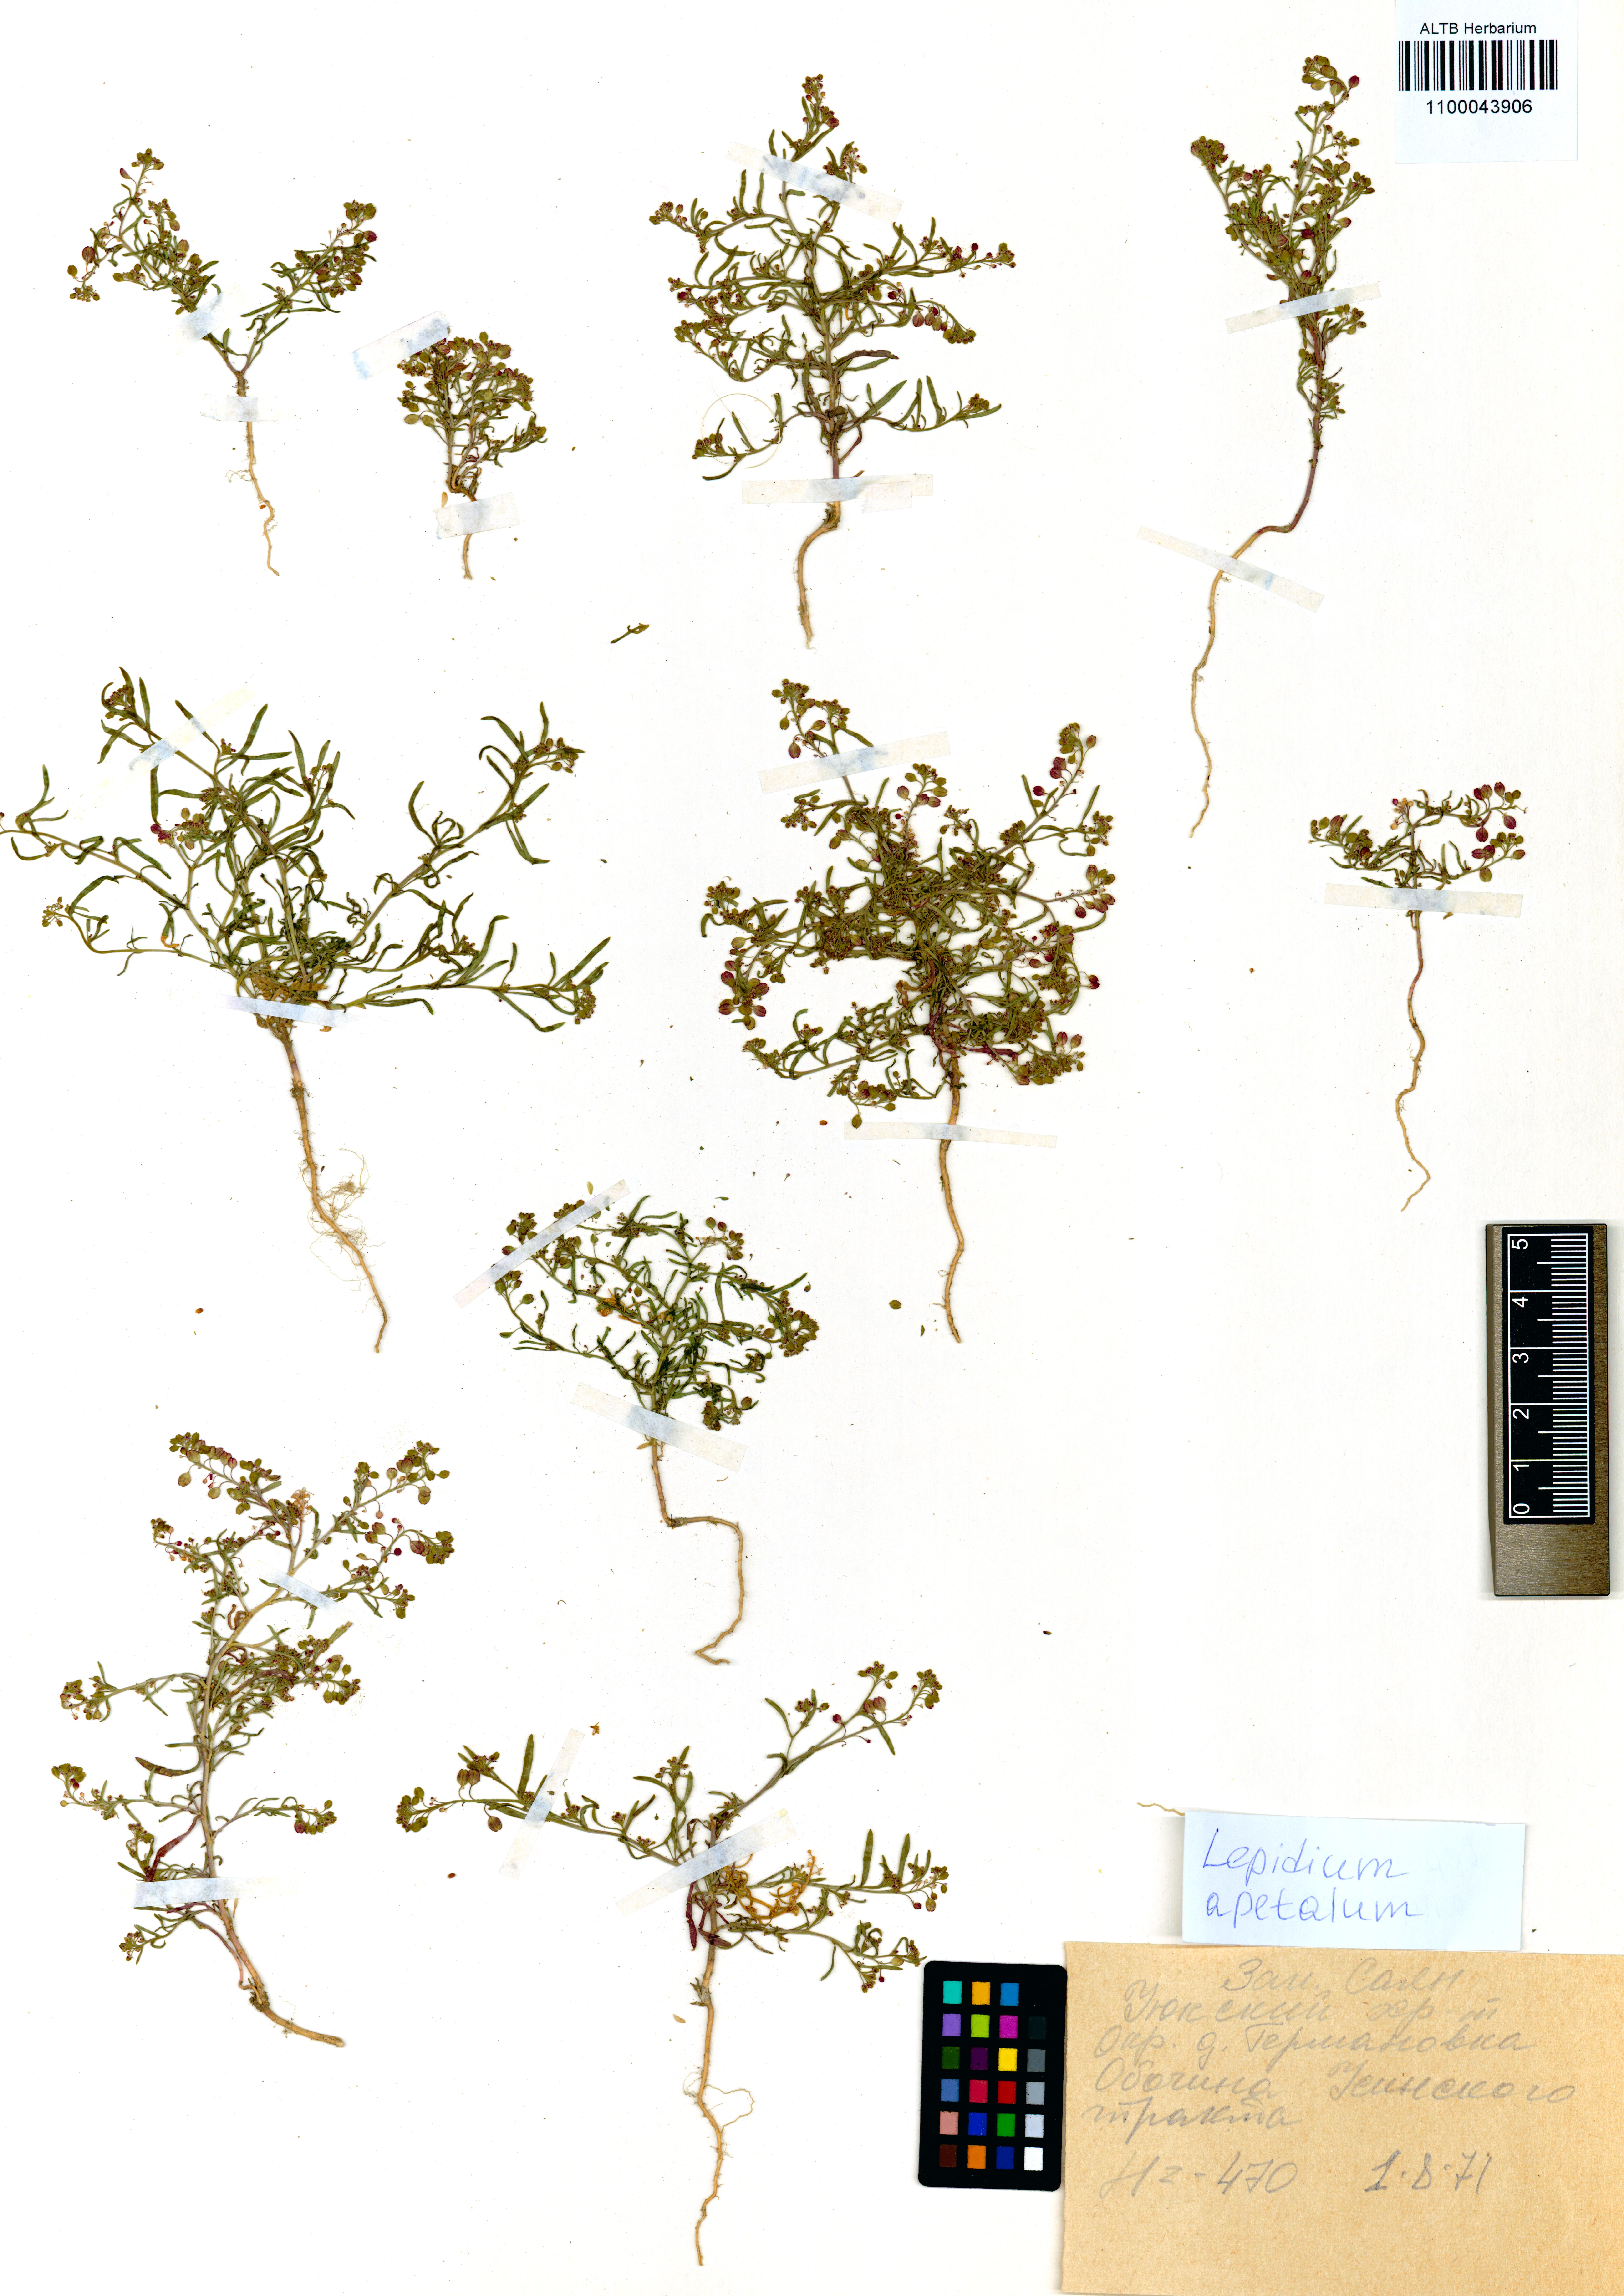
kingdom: Plantae
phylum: Tracheophyta
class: Magnoliopsida
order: Brassicales
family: Brassicaceae
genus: Lepidium
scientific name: Lepidium apetalum
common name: Pepperweed
